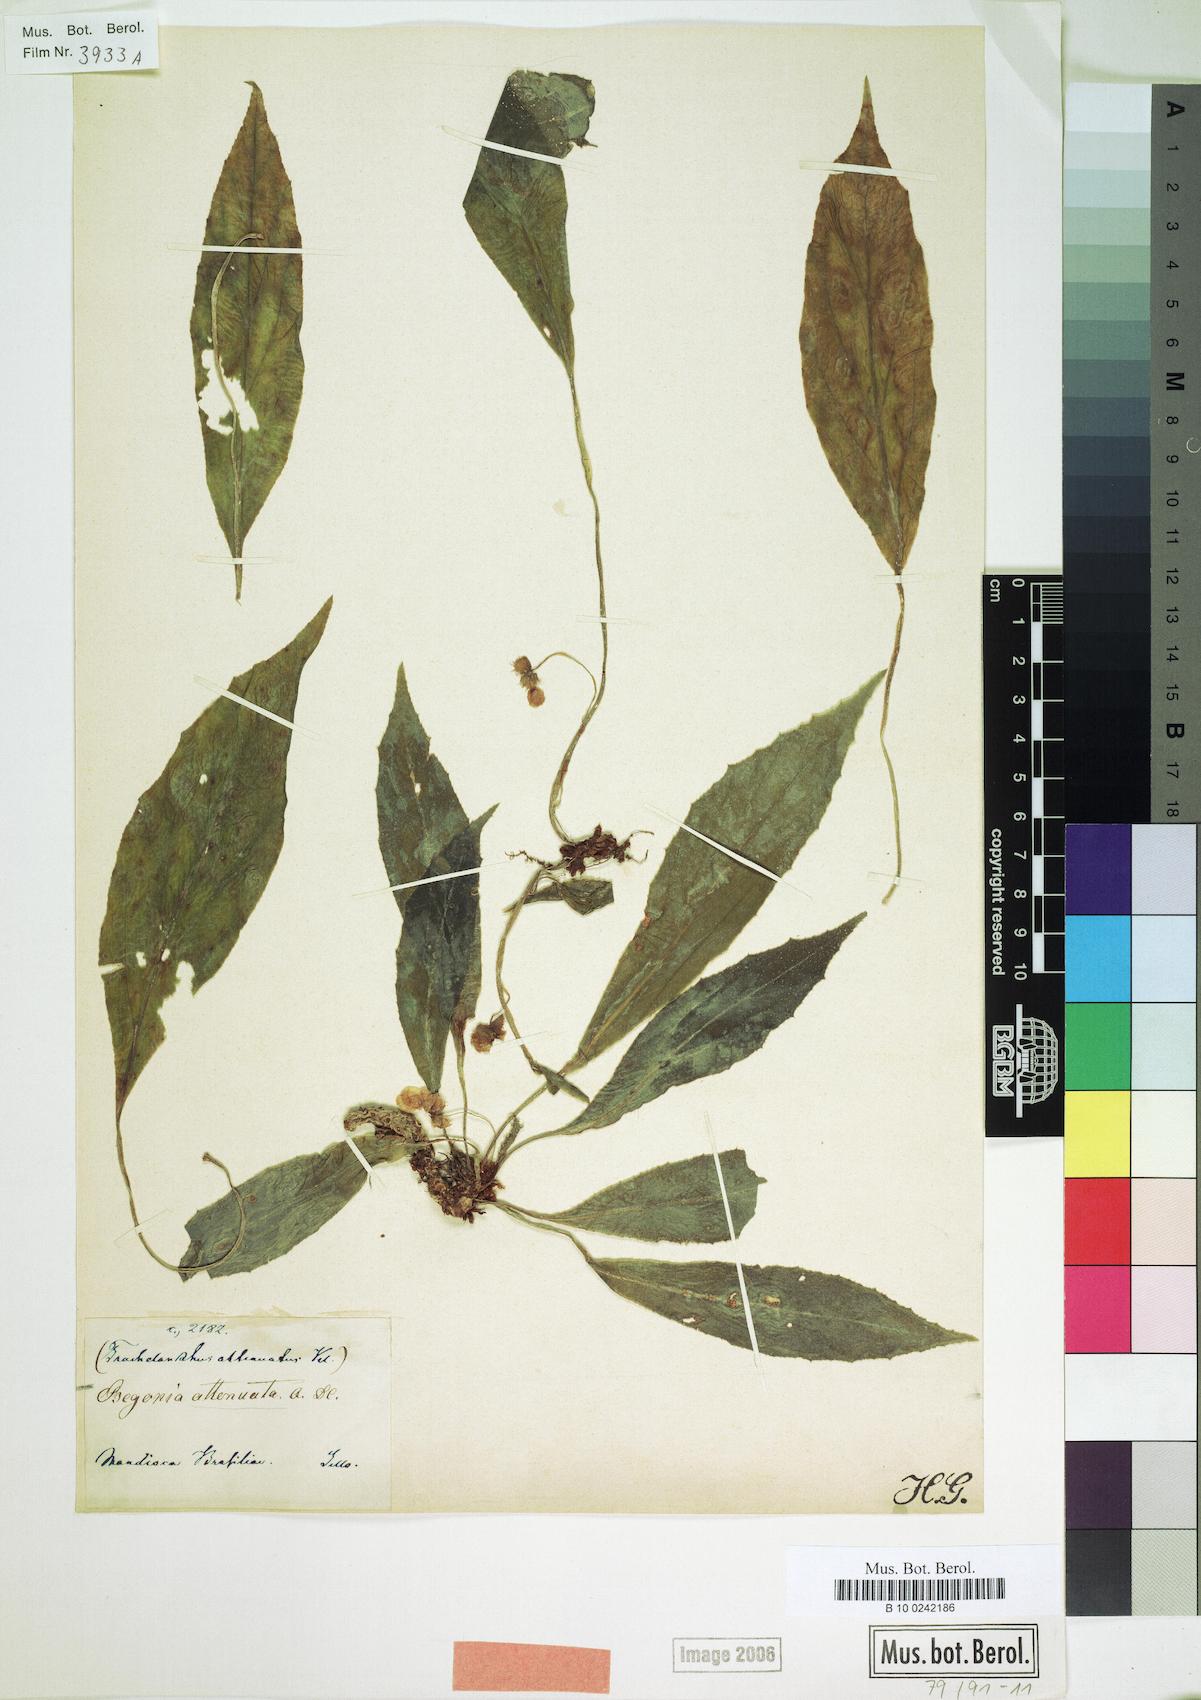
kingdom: Plantae
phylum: Tracheophyta
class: Magnoliopsida
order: Cucurbitales
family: Begoniaceae
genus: Begonia
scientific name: Begonia lanceolata
